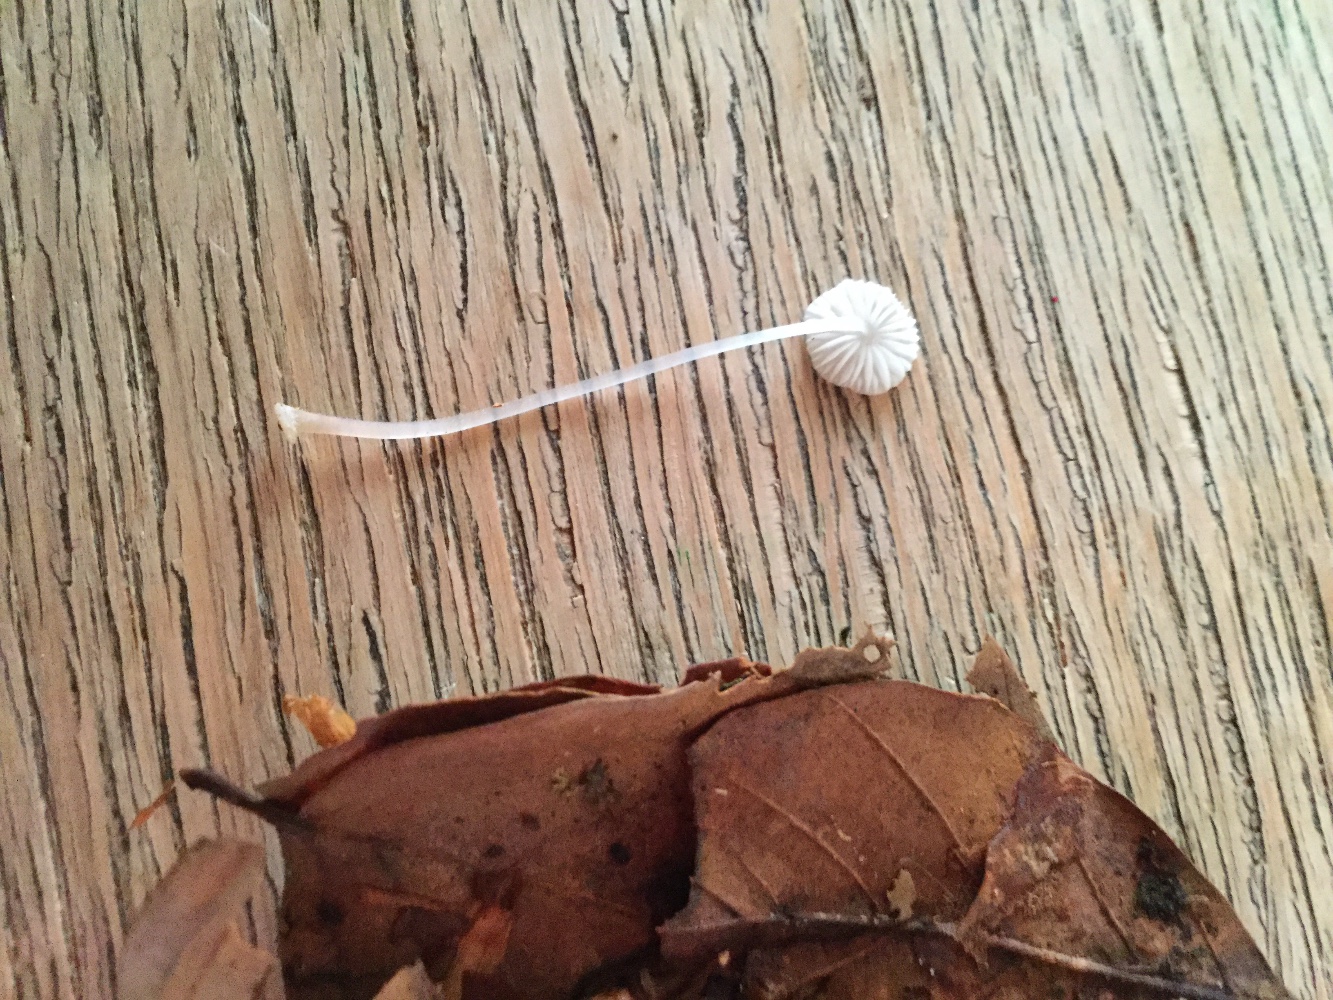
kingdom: Fungi
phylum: Basidiomycota
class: Agaricomycetes
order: Agaricales
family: Mycenaceae
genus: Mycena
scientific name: Mycena stylobates
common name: fureskivet huesvamp
